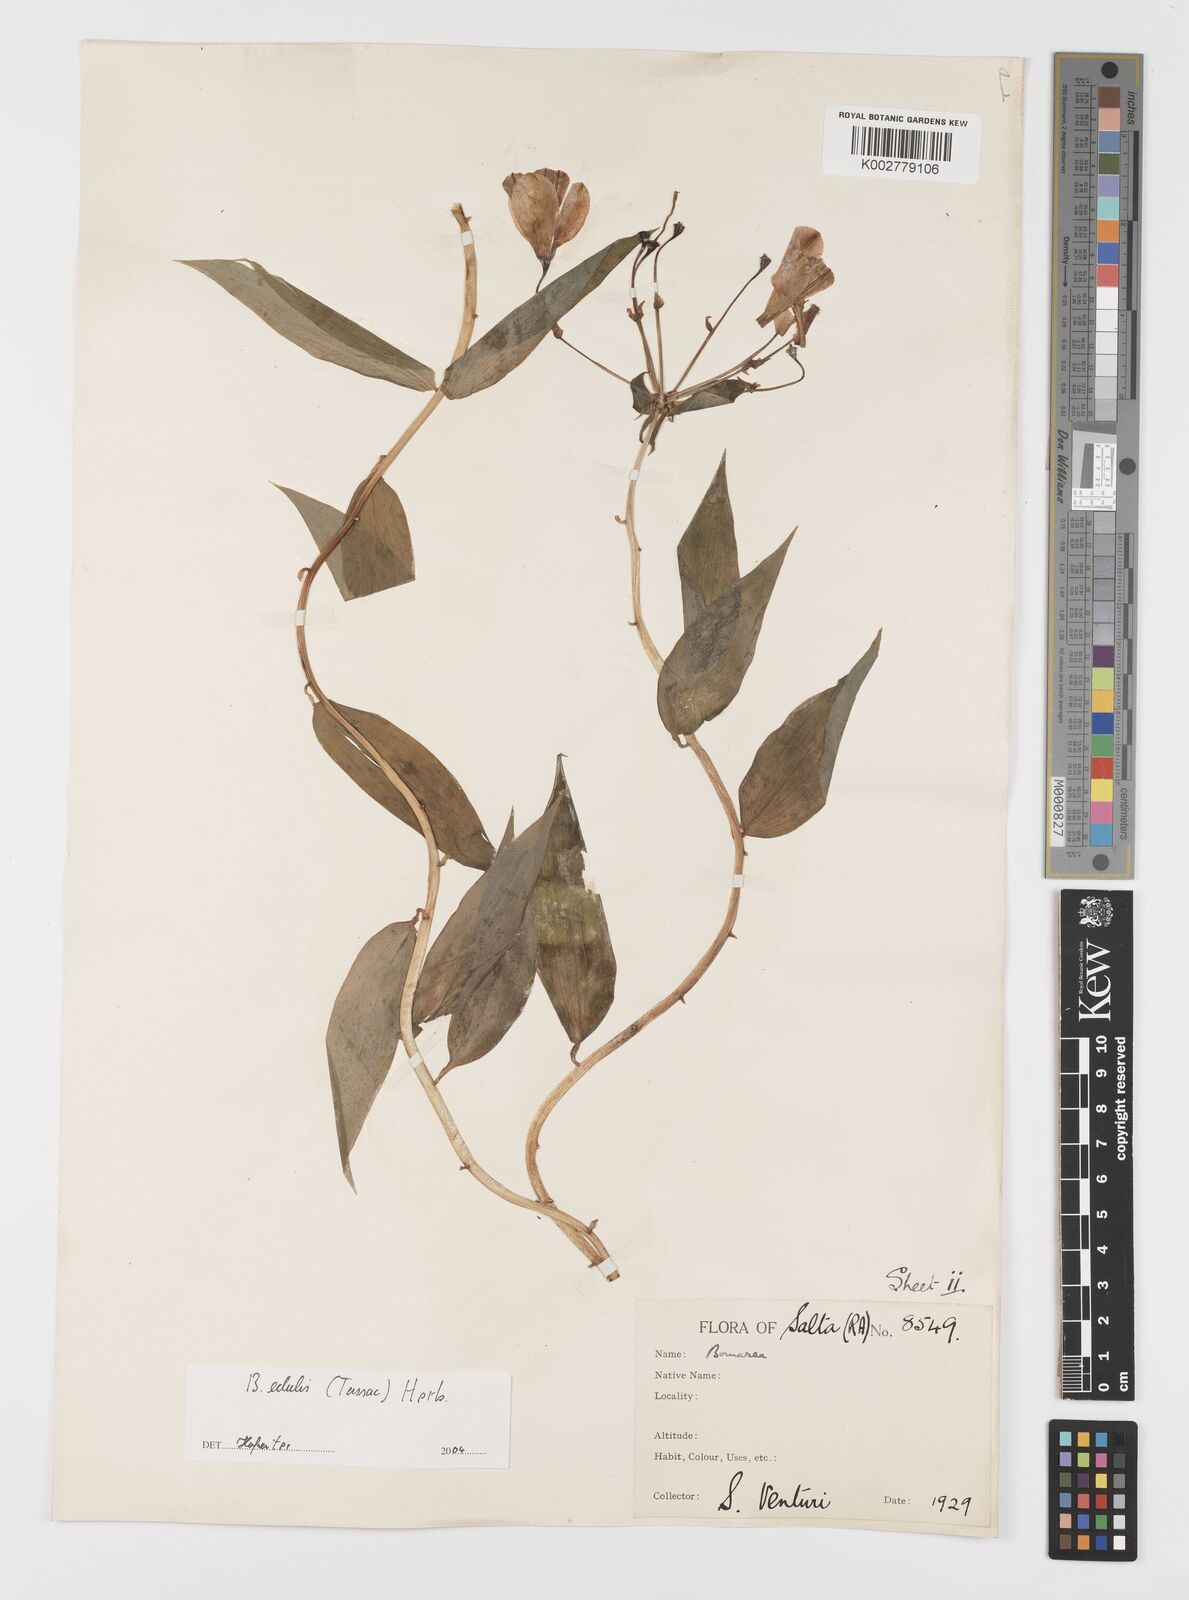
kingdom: Plantae
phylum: Tracheophyta
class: Liliopsida
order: Liliales
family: Alstroemeriaceae
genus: Bomarea
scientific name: Bomarea edulis
